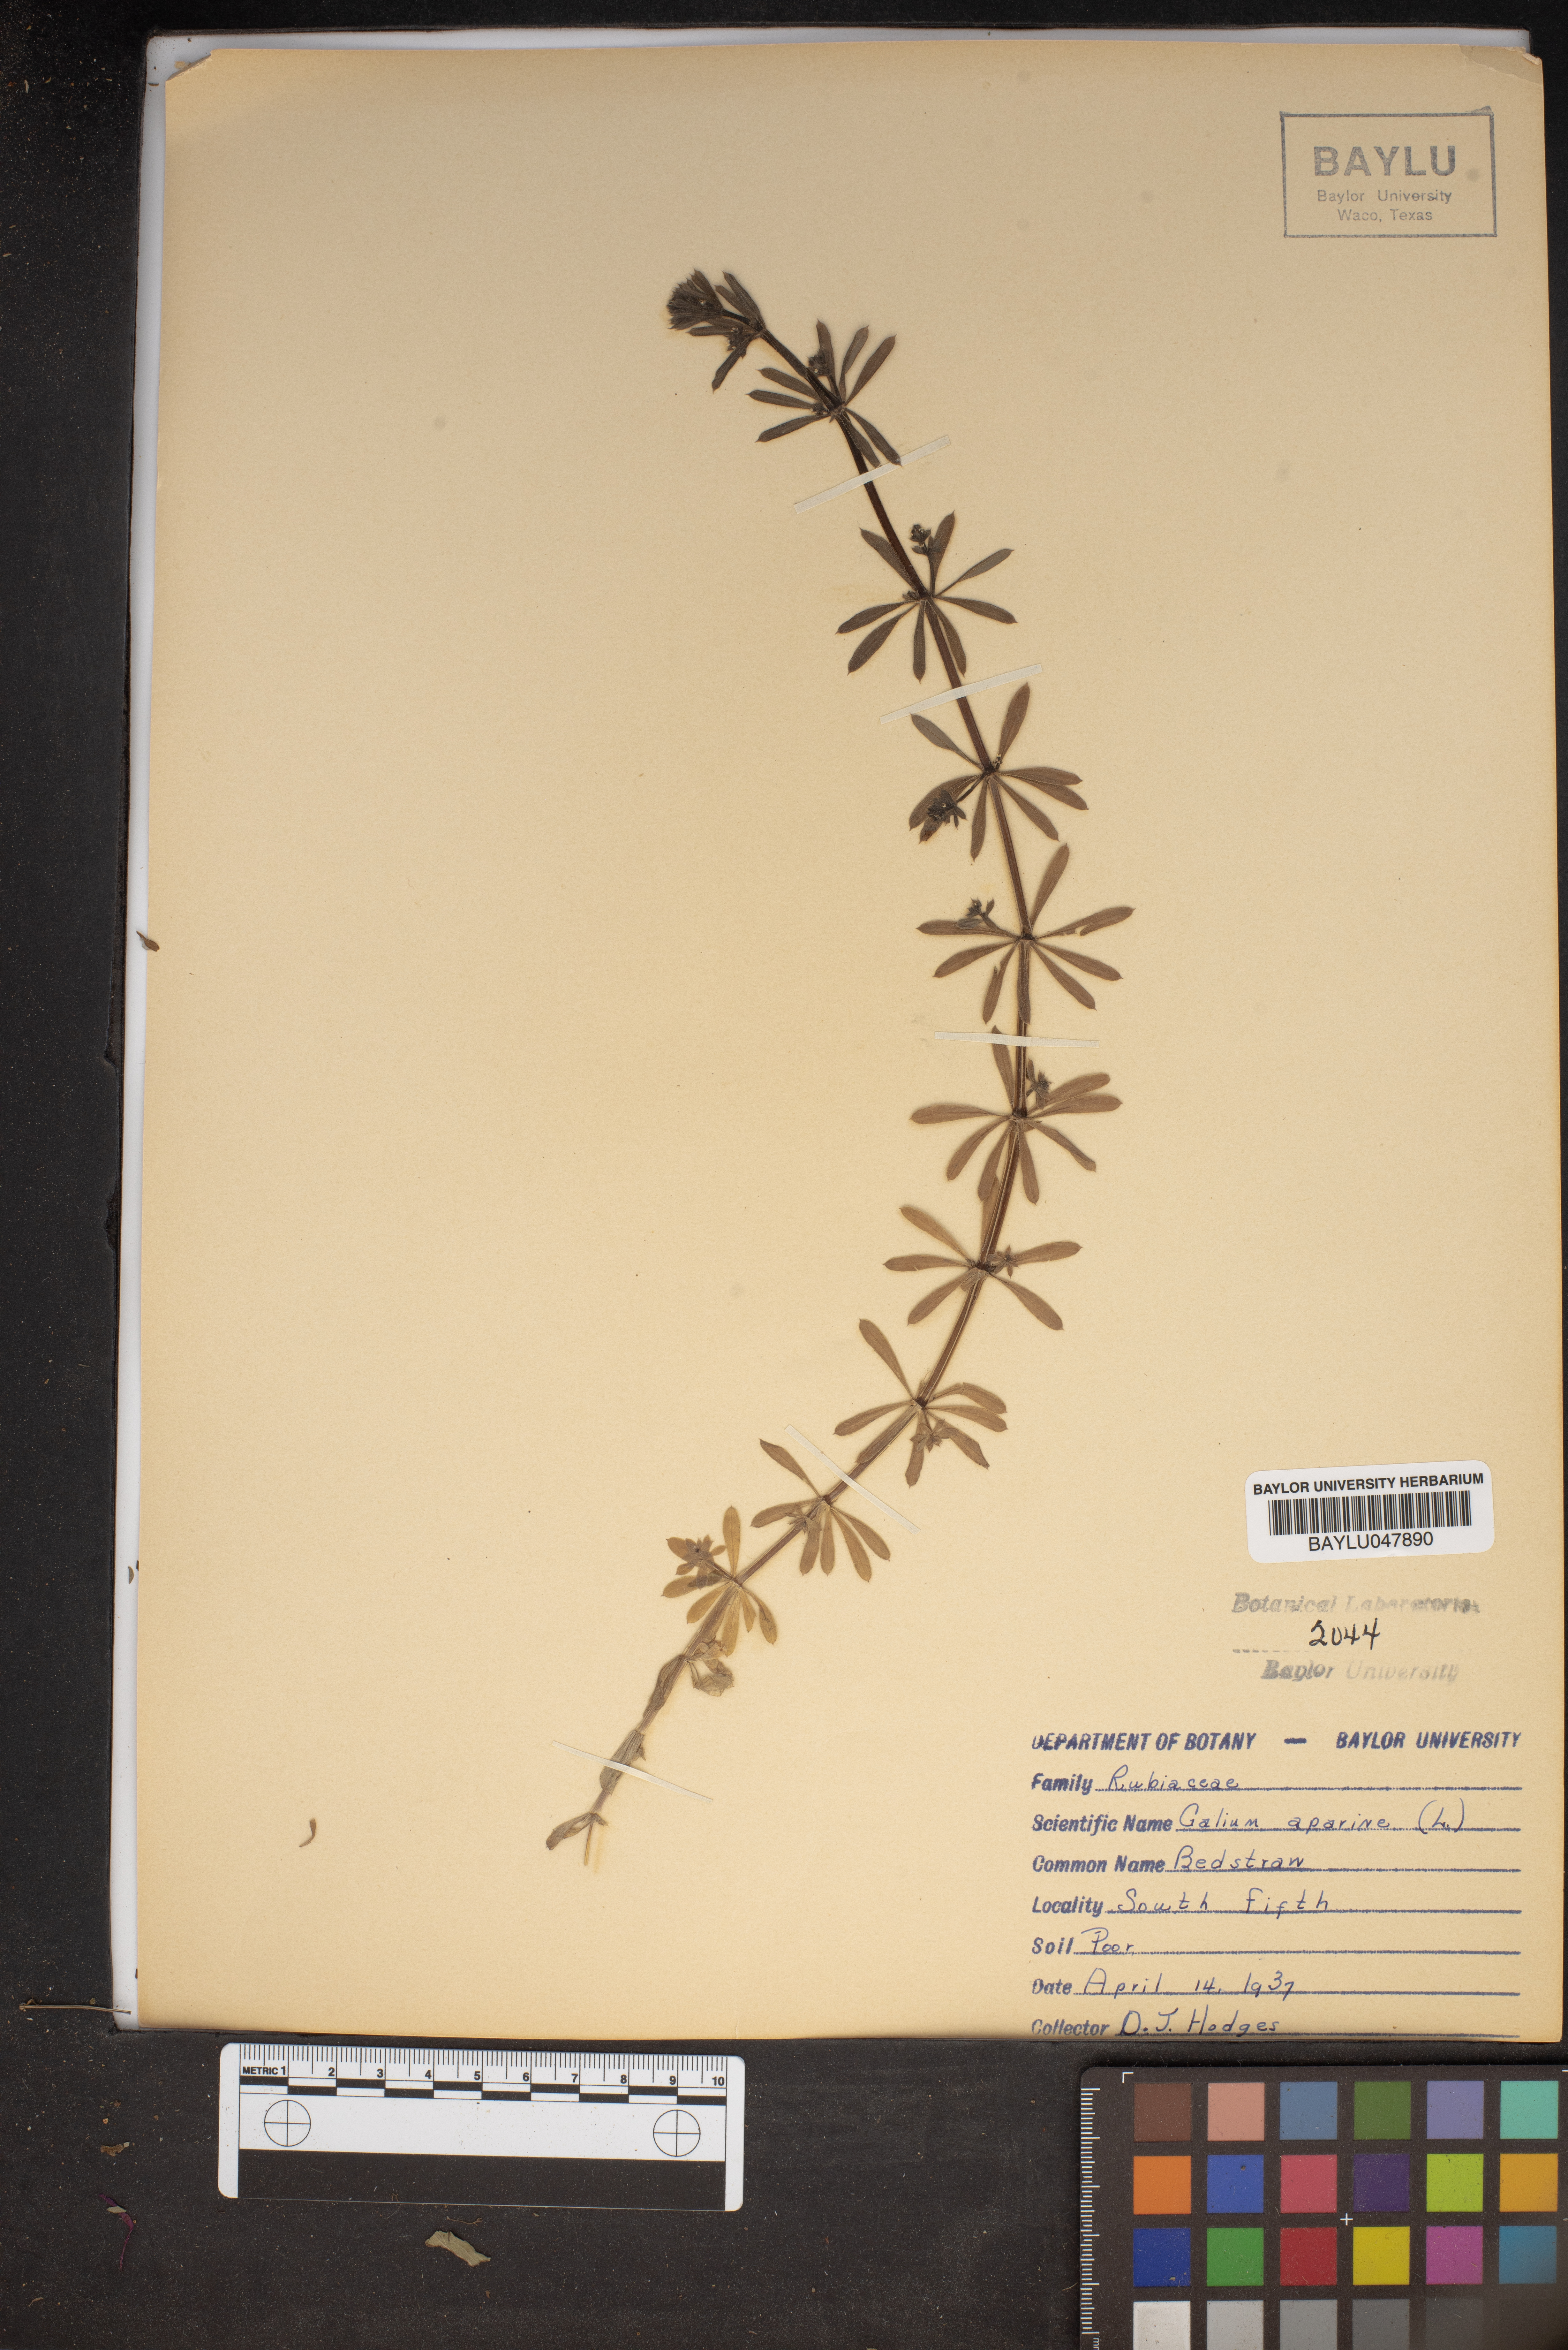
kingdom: Plantae
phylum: Tracheophyta
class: Magnoliopsida
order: Gentianales
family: Rubiaceae
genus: Galium
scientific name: Galium aparine
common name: Cleavers
